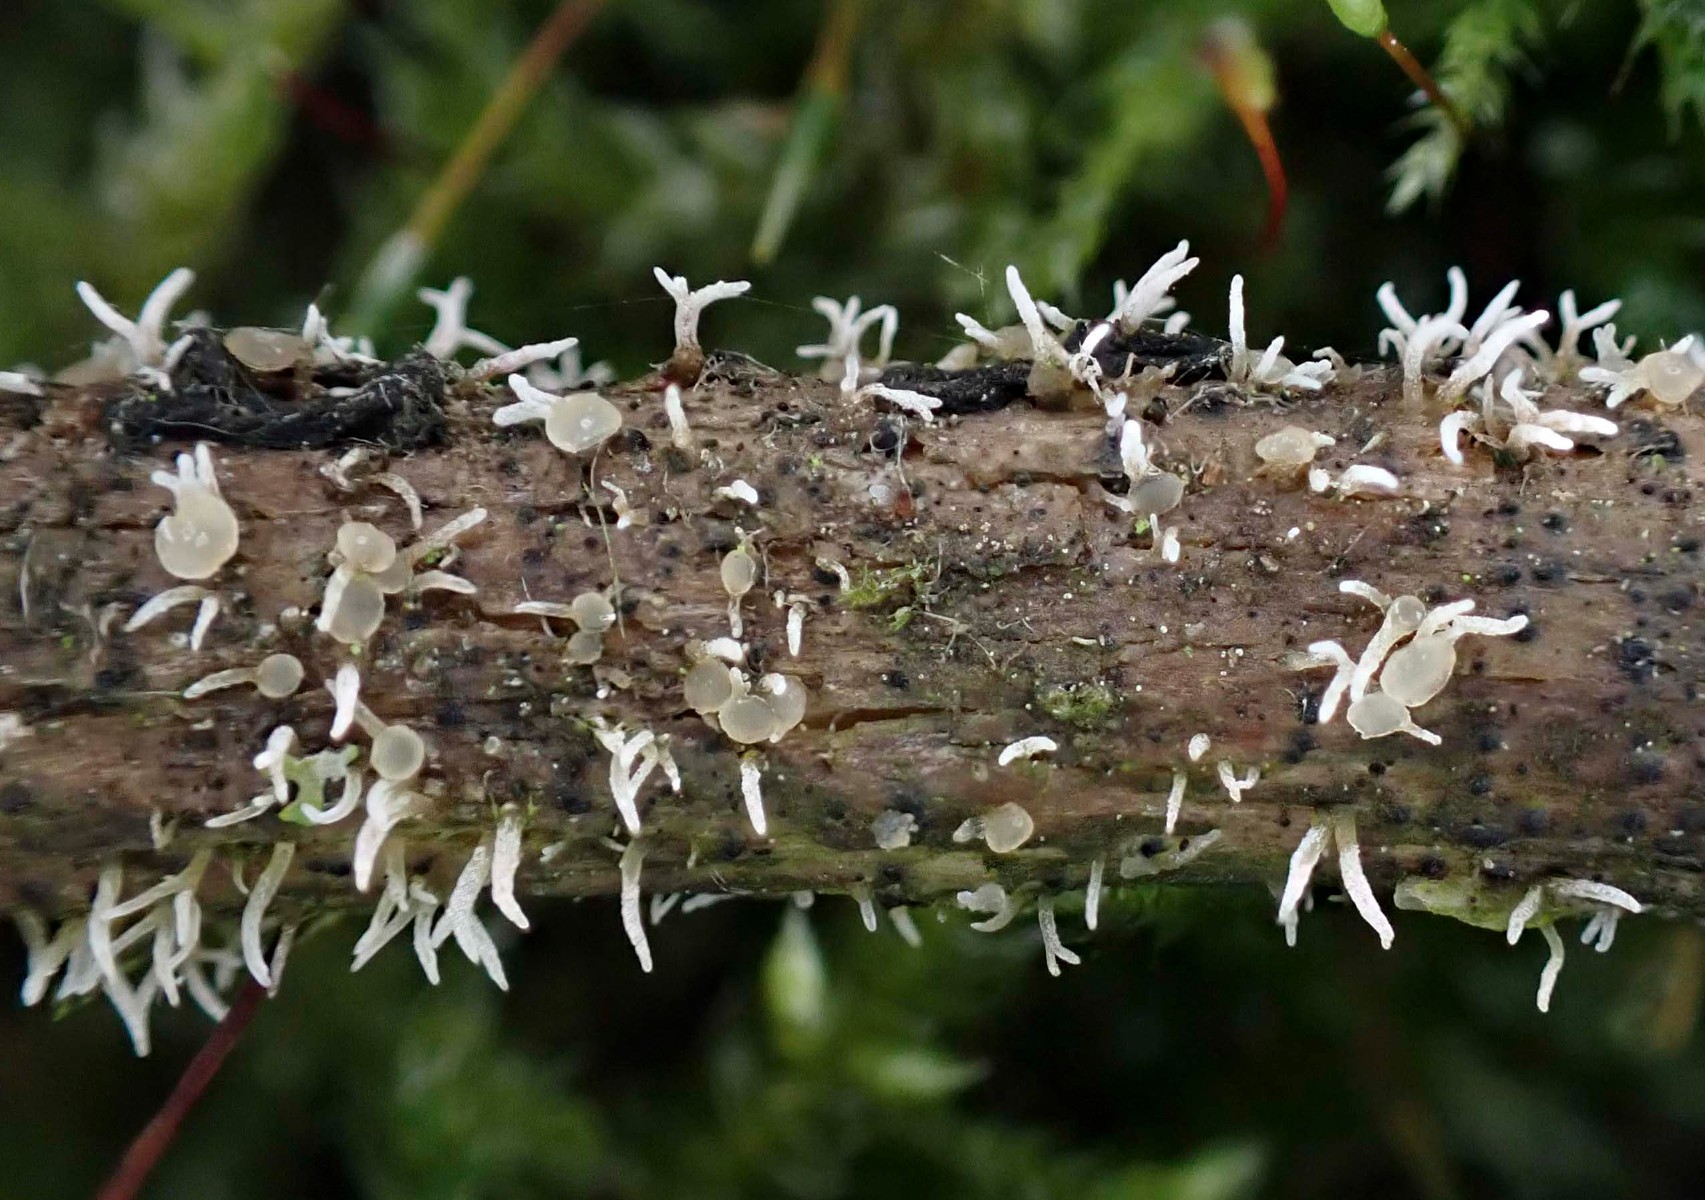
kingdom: Fungi
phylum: Ascomycota
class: Sordariomycetes
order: Hypocreales
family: Cordycipitaceae
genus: Isaria
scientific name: Isaria friesii
